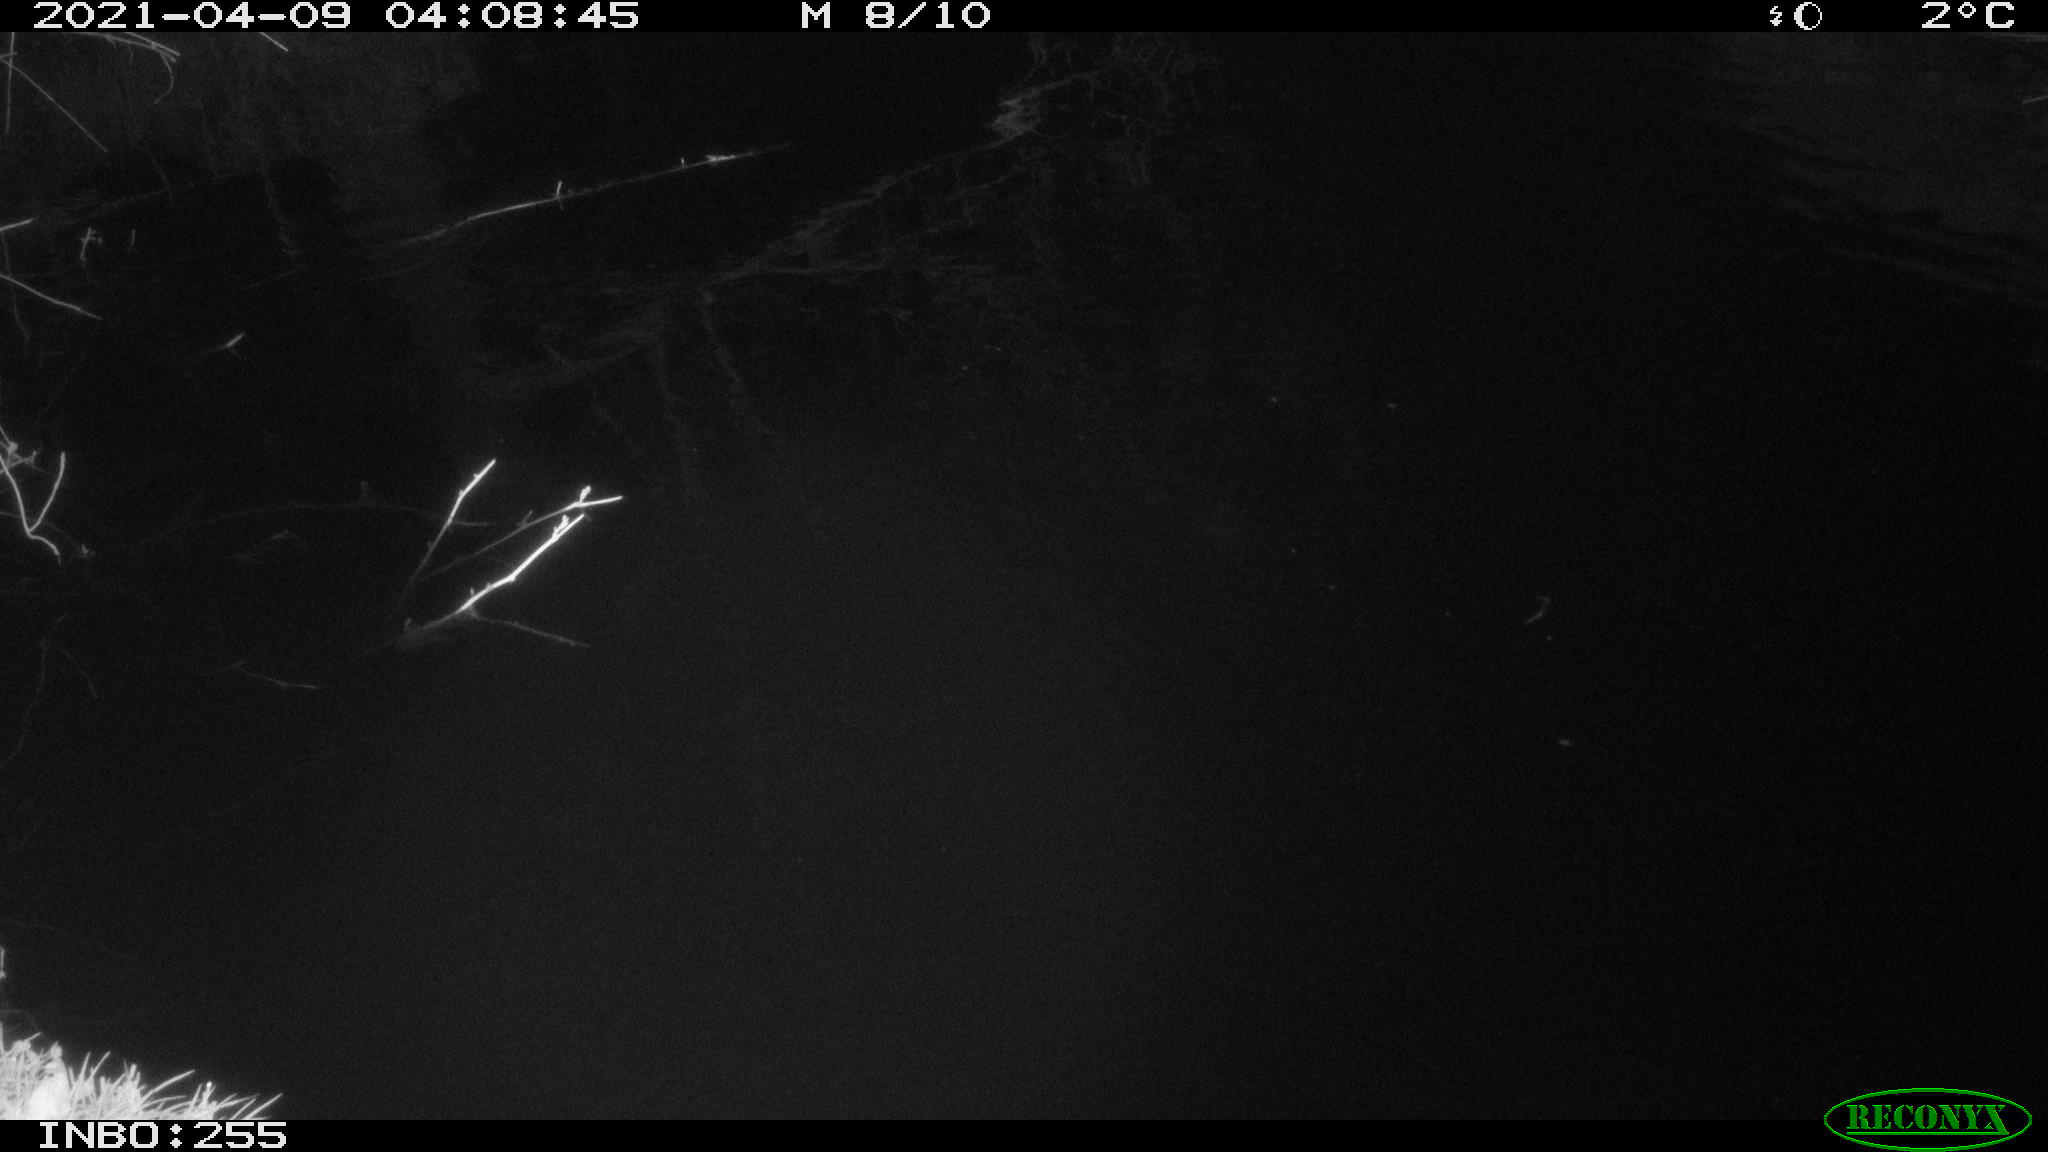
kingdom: Animalia
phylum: Chordata
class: Aves
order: Anseriformes
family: Anatidae
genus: Anas
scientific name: Anas platyrhynchos
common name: Mallard
